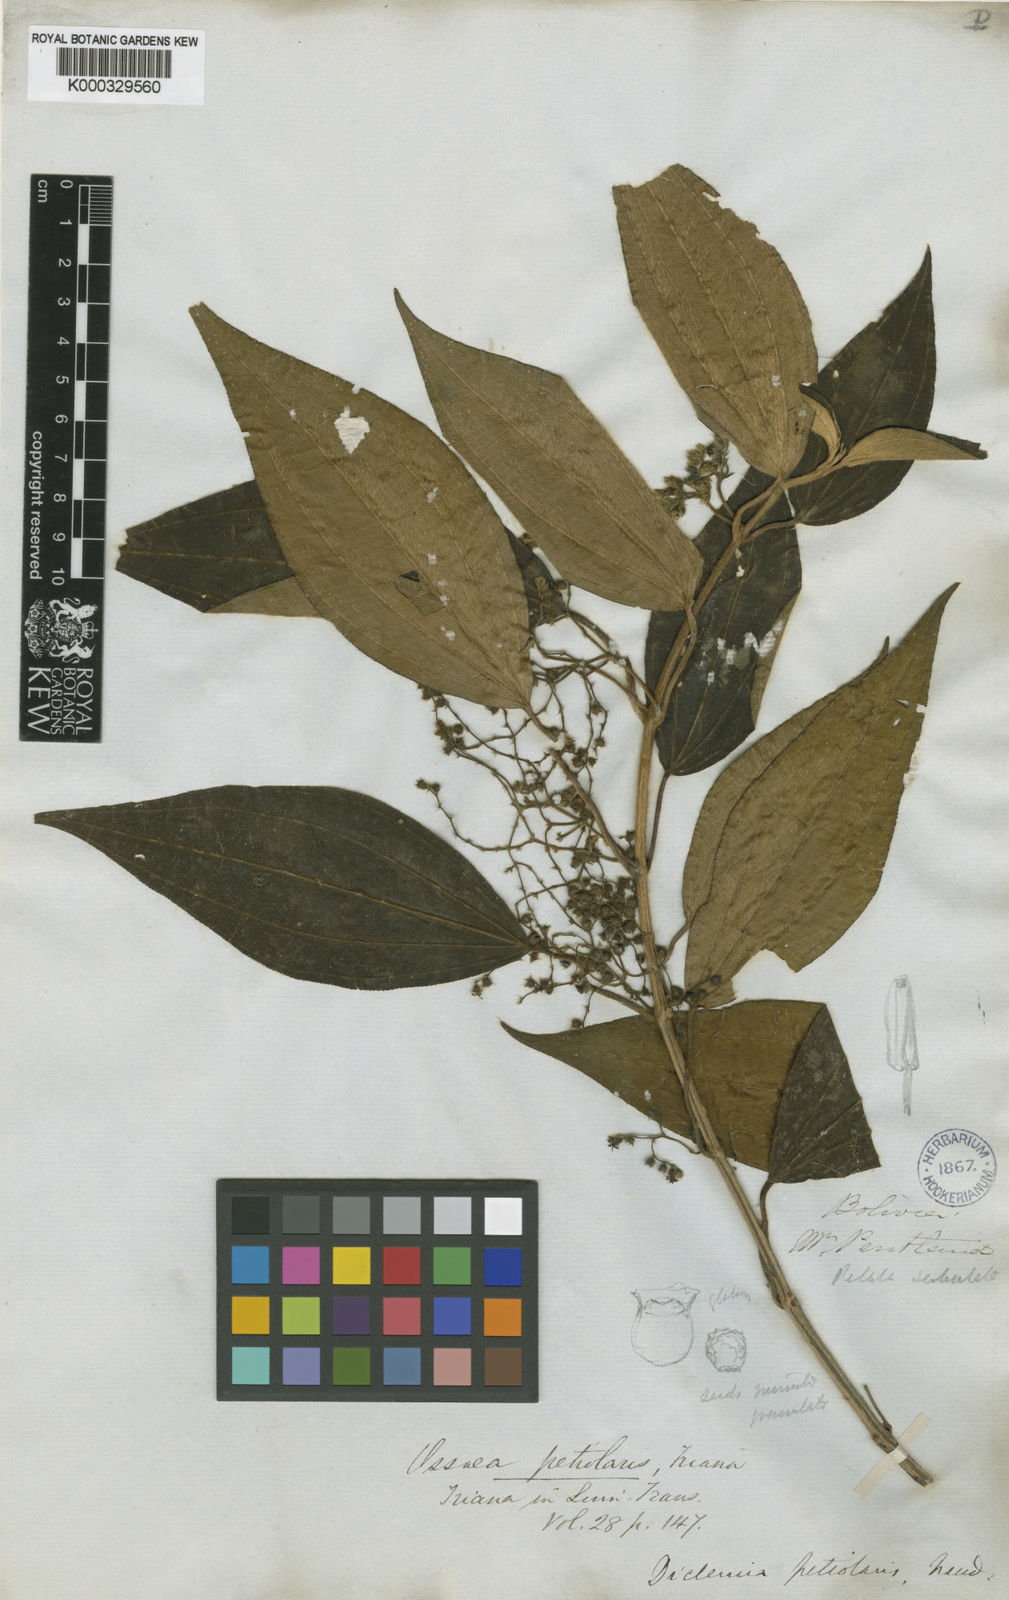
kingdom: Plantae
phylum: Tracheophyta
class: Magnoliopsida
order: Myrtales
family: Melastomataceae
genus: Miconia
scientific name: Miconia secunpetiolaris
